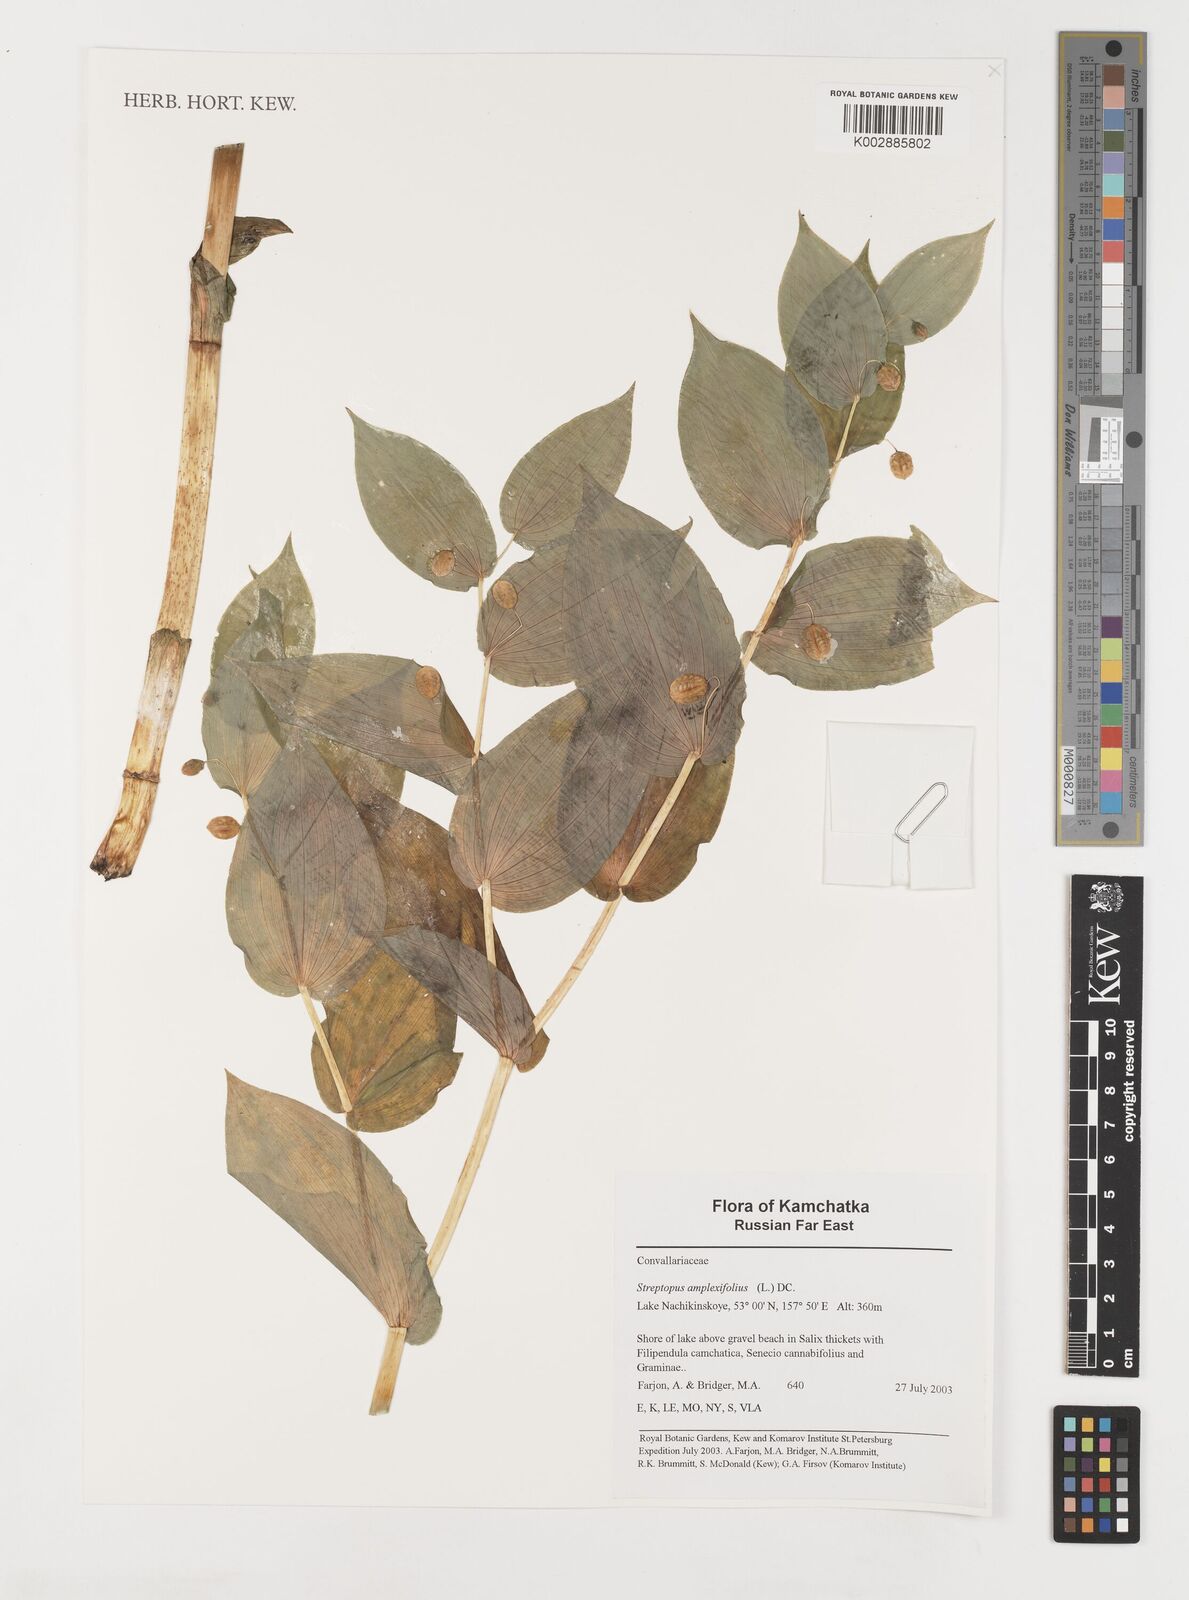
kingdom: Plantae
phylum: Tracheophyta
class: Liliopsida
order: Liliales
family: Liliaceae
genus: Streptopus
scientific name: Streptopus amplexifolius
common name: Clasp twisted stalk
